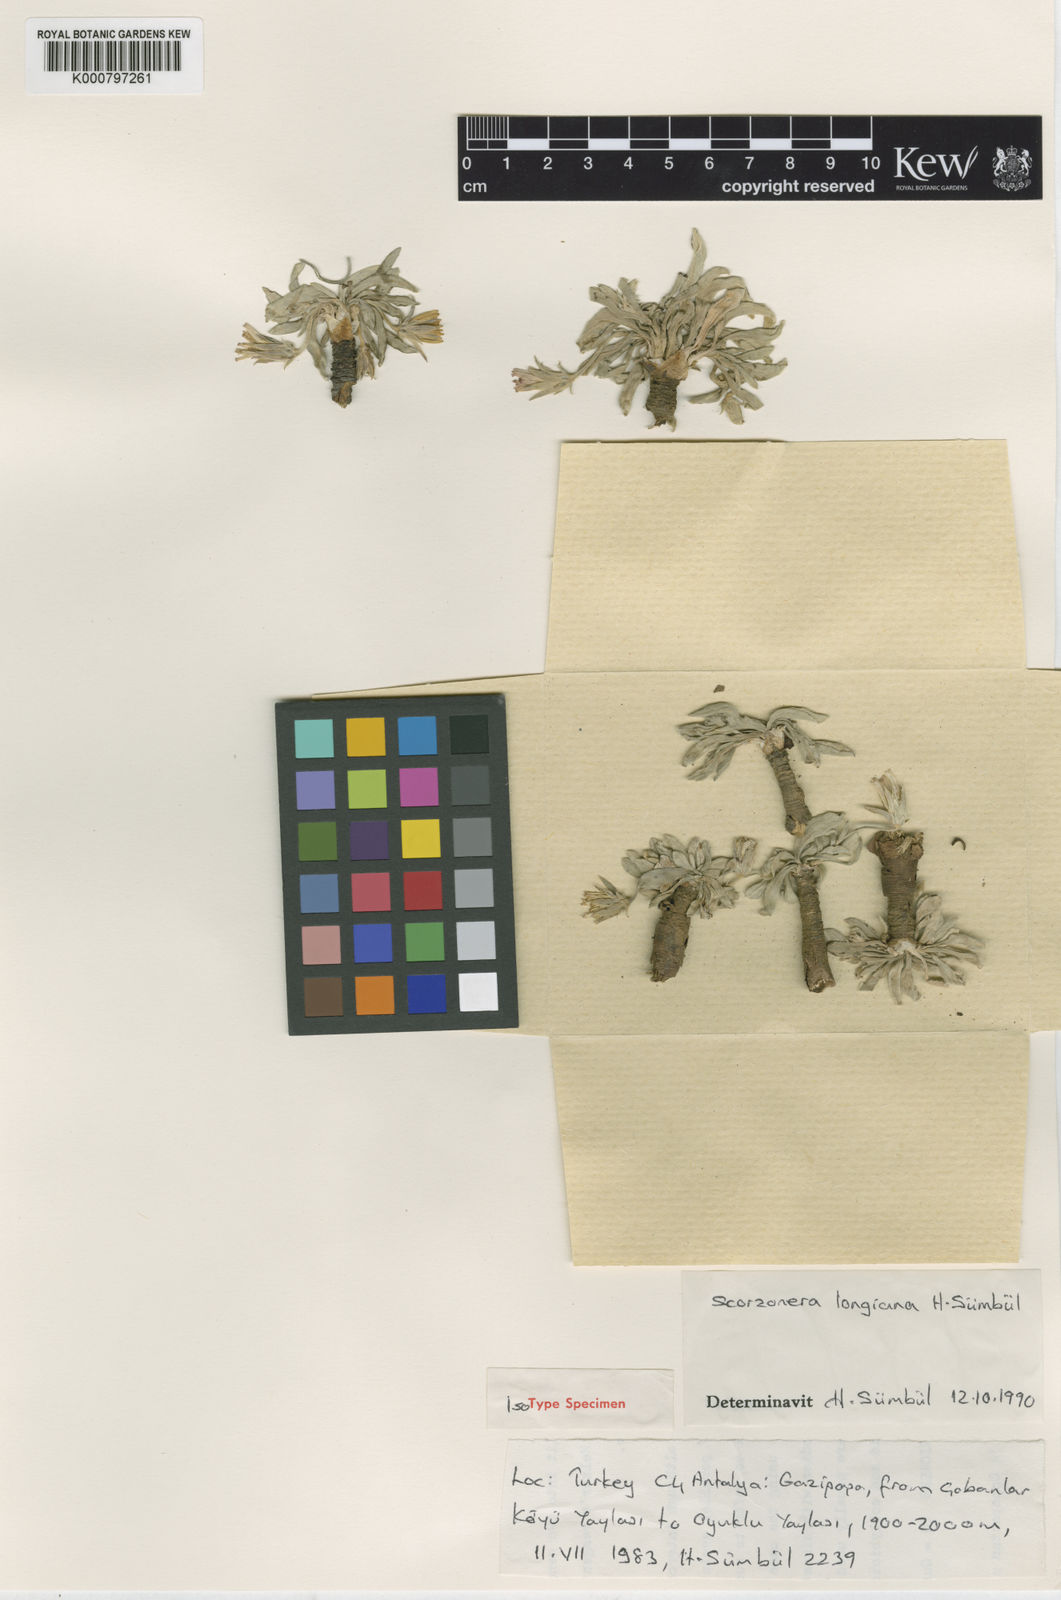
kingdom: Plantae
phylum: Tracheophyta
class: Magnoliopsida
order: Asterales
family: Asteraceae
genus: Scorzonera
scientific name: Scorzonera
